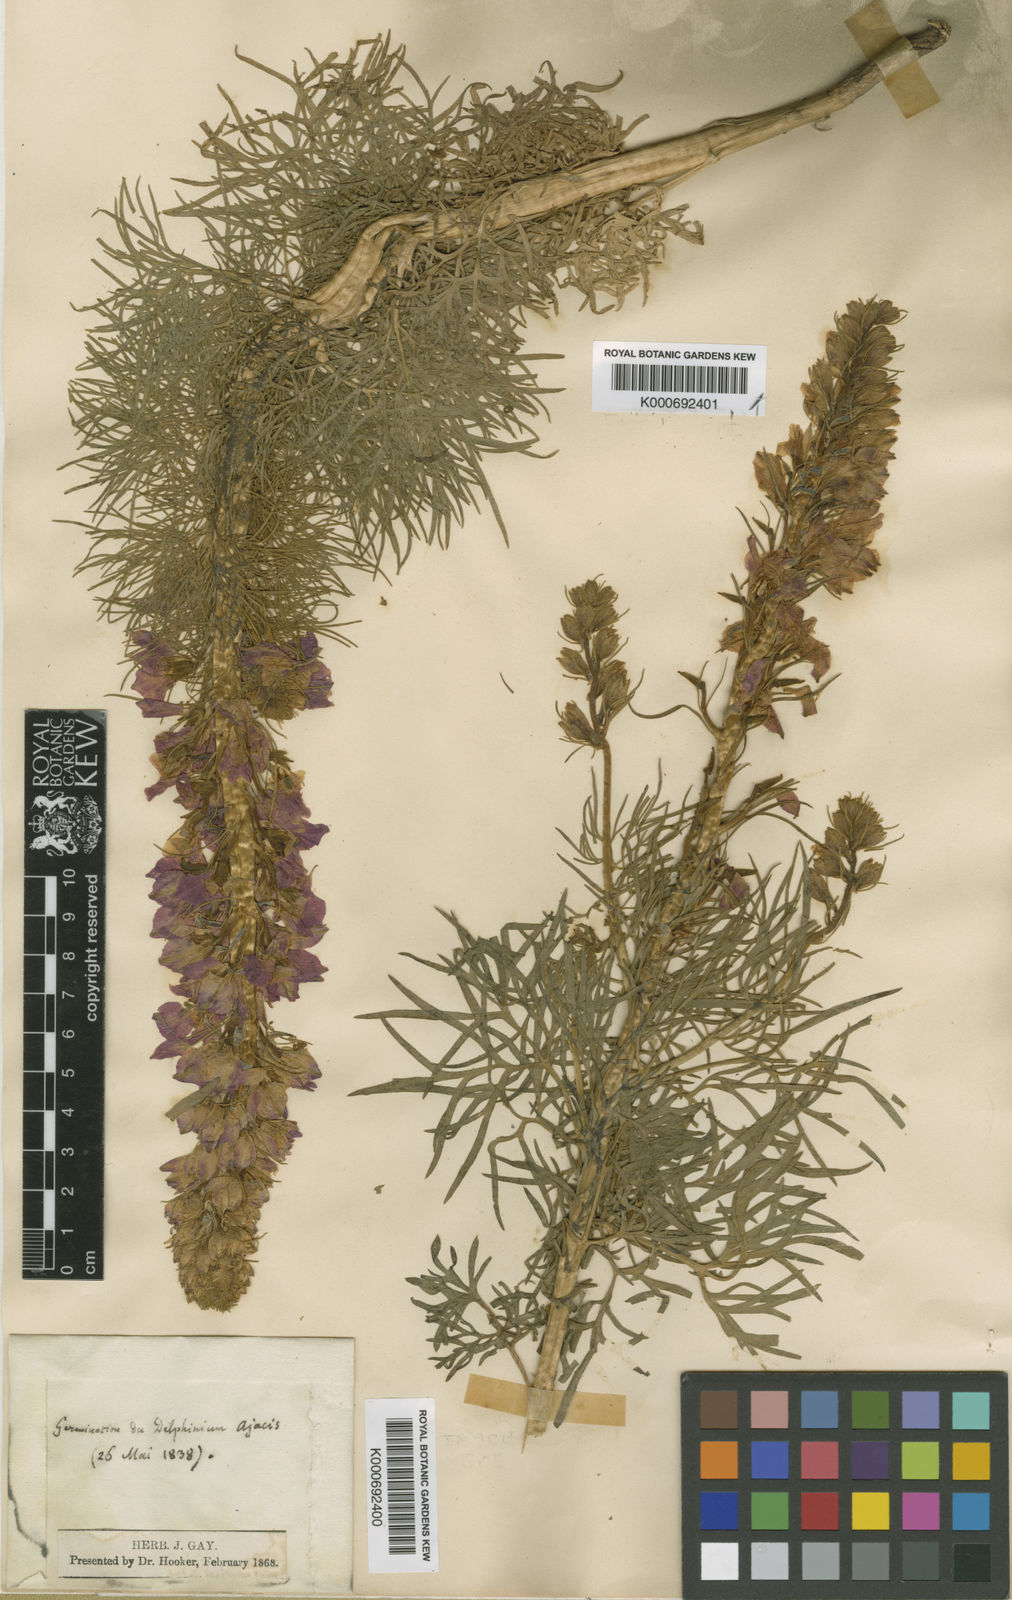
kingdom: Plantae
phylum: Tracheophyta
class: Magnoliopsida
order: Ranunculales
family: Ranunculaceae
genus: Delphinium
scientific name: Delphinium
